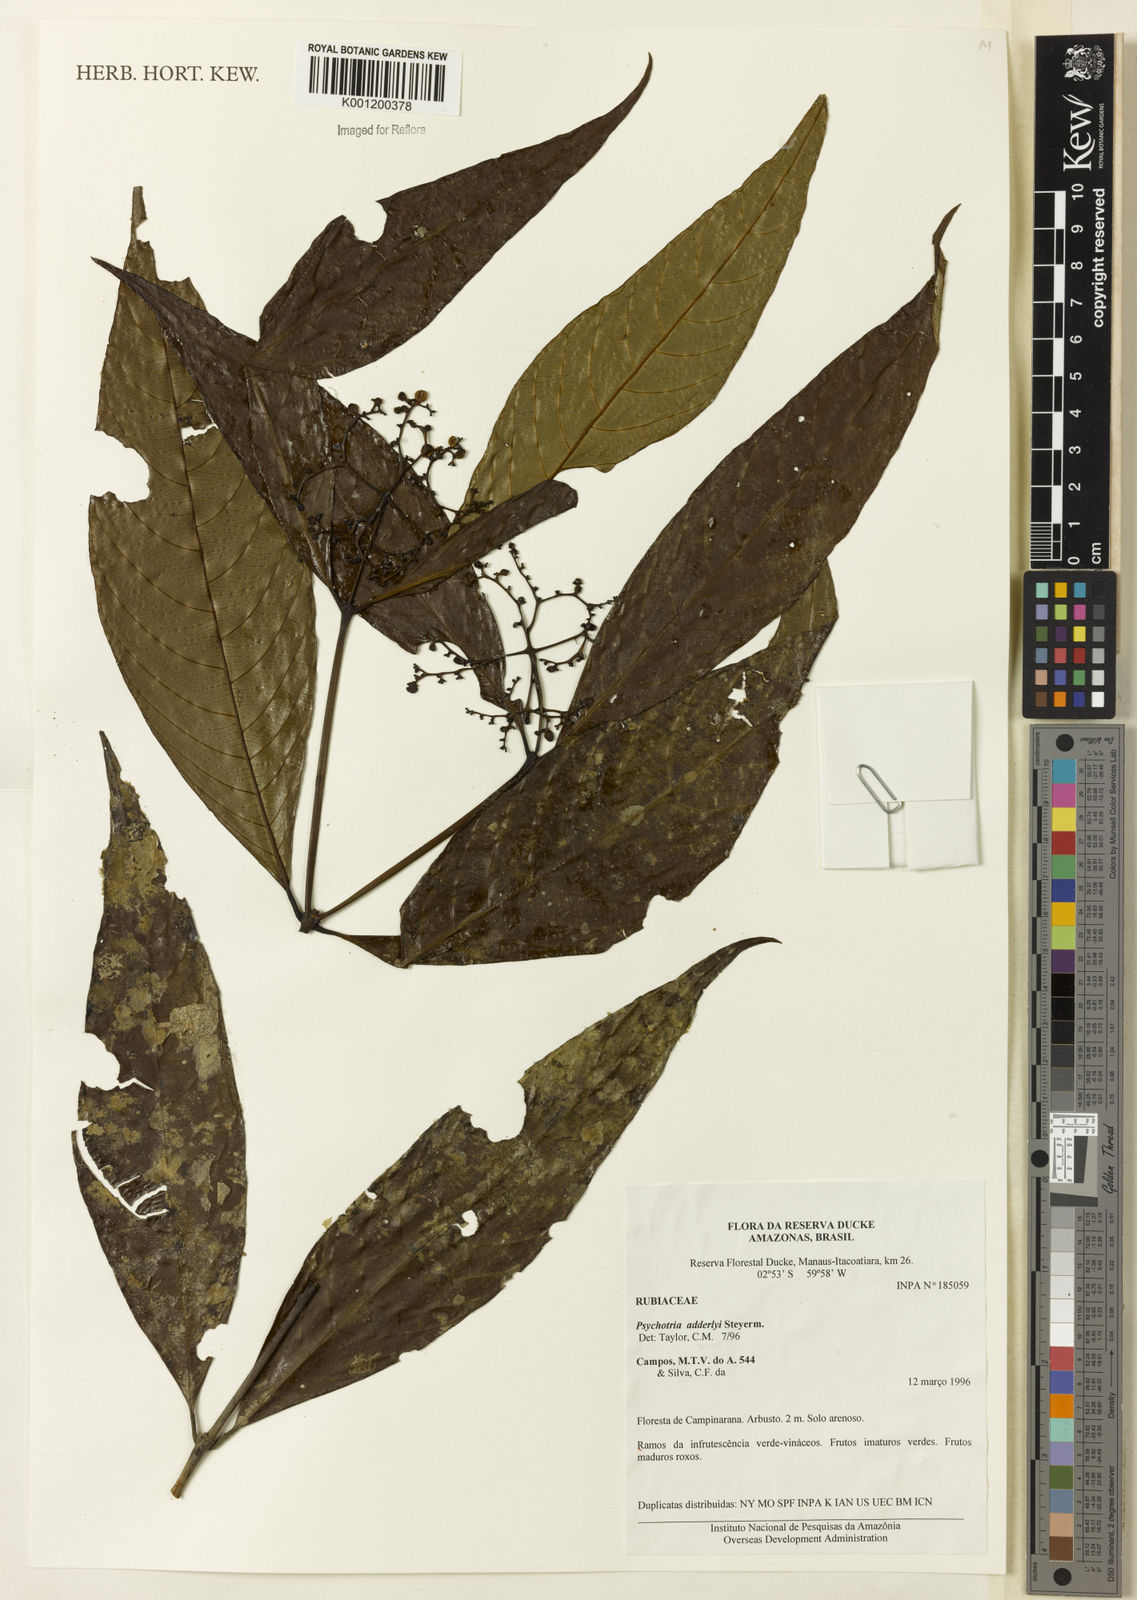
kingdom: Plantae
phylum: Tracheophyta
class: Magnoliopsida
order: Gentianales
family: Rubiaceae
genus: Palicourea
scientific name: Palicourea adderleyi
